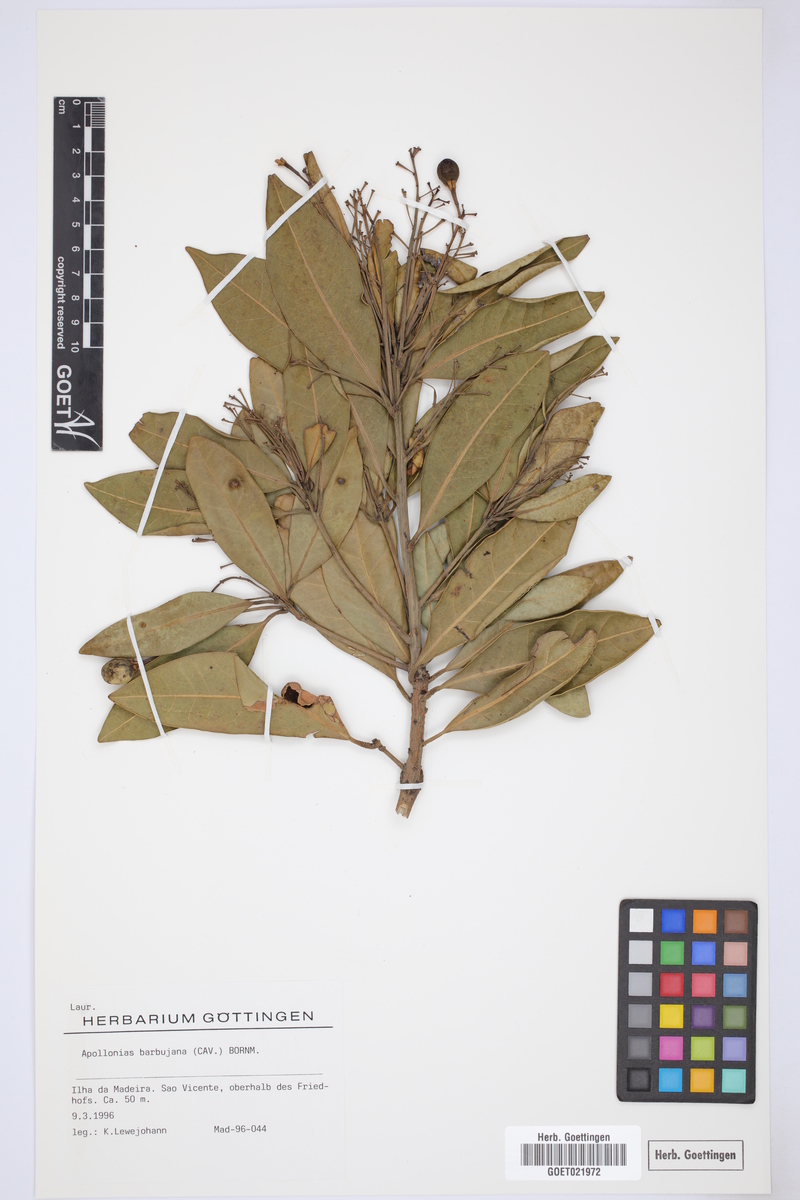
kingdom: Plantae
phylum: Tracheophyta
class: Magnoliopsida
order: Laurales
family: Lauraceae
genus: Apollonias
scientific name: Apollonias barbujana
